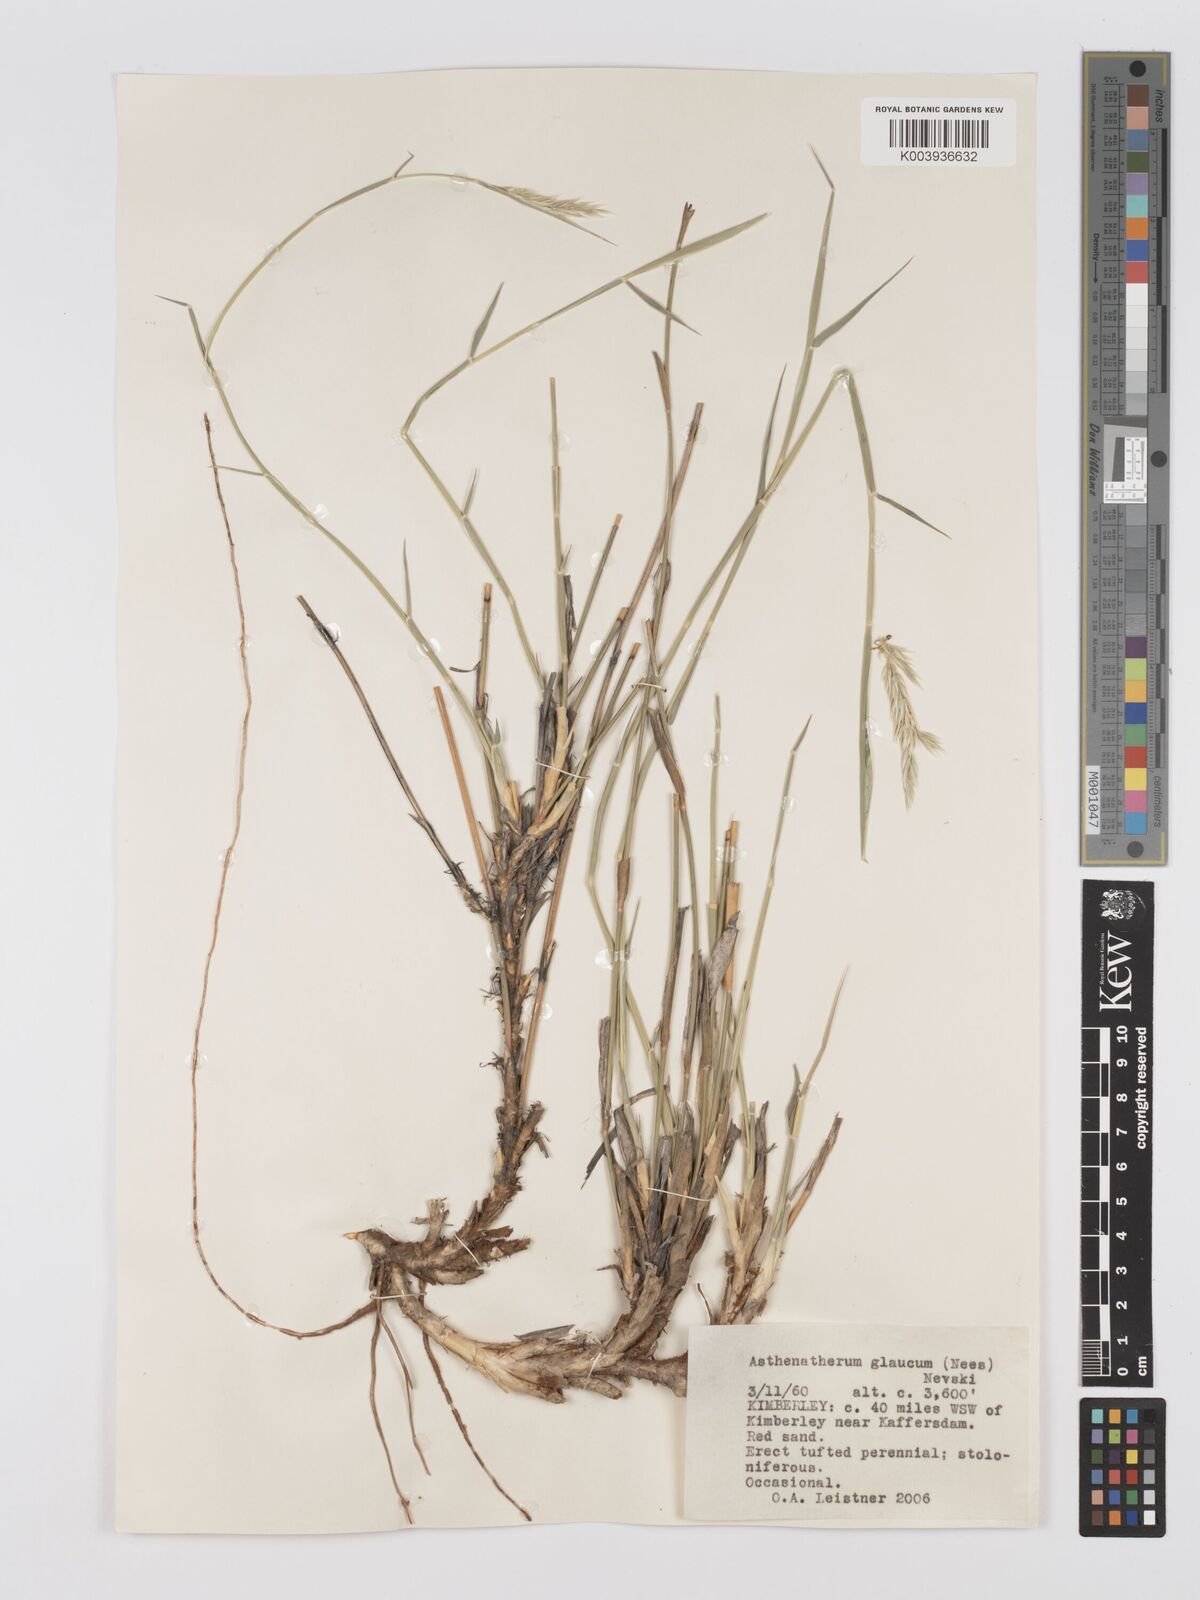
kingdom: Plantae
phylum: Tracheophyta
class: Liliopsida
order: Poales
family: Poaceae
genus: Centropodia
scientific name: Centropodia glauca
